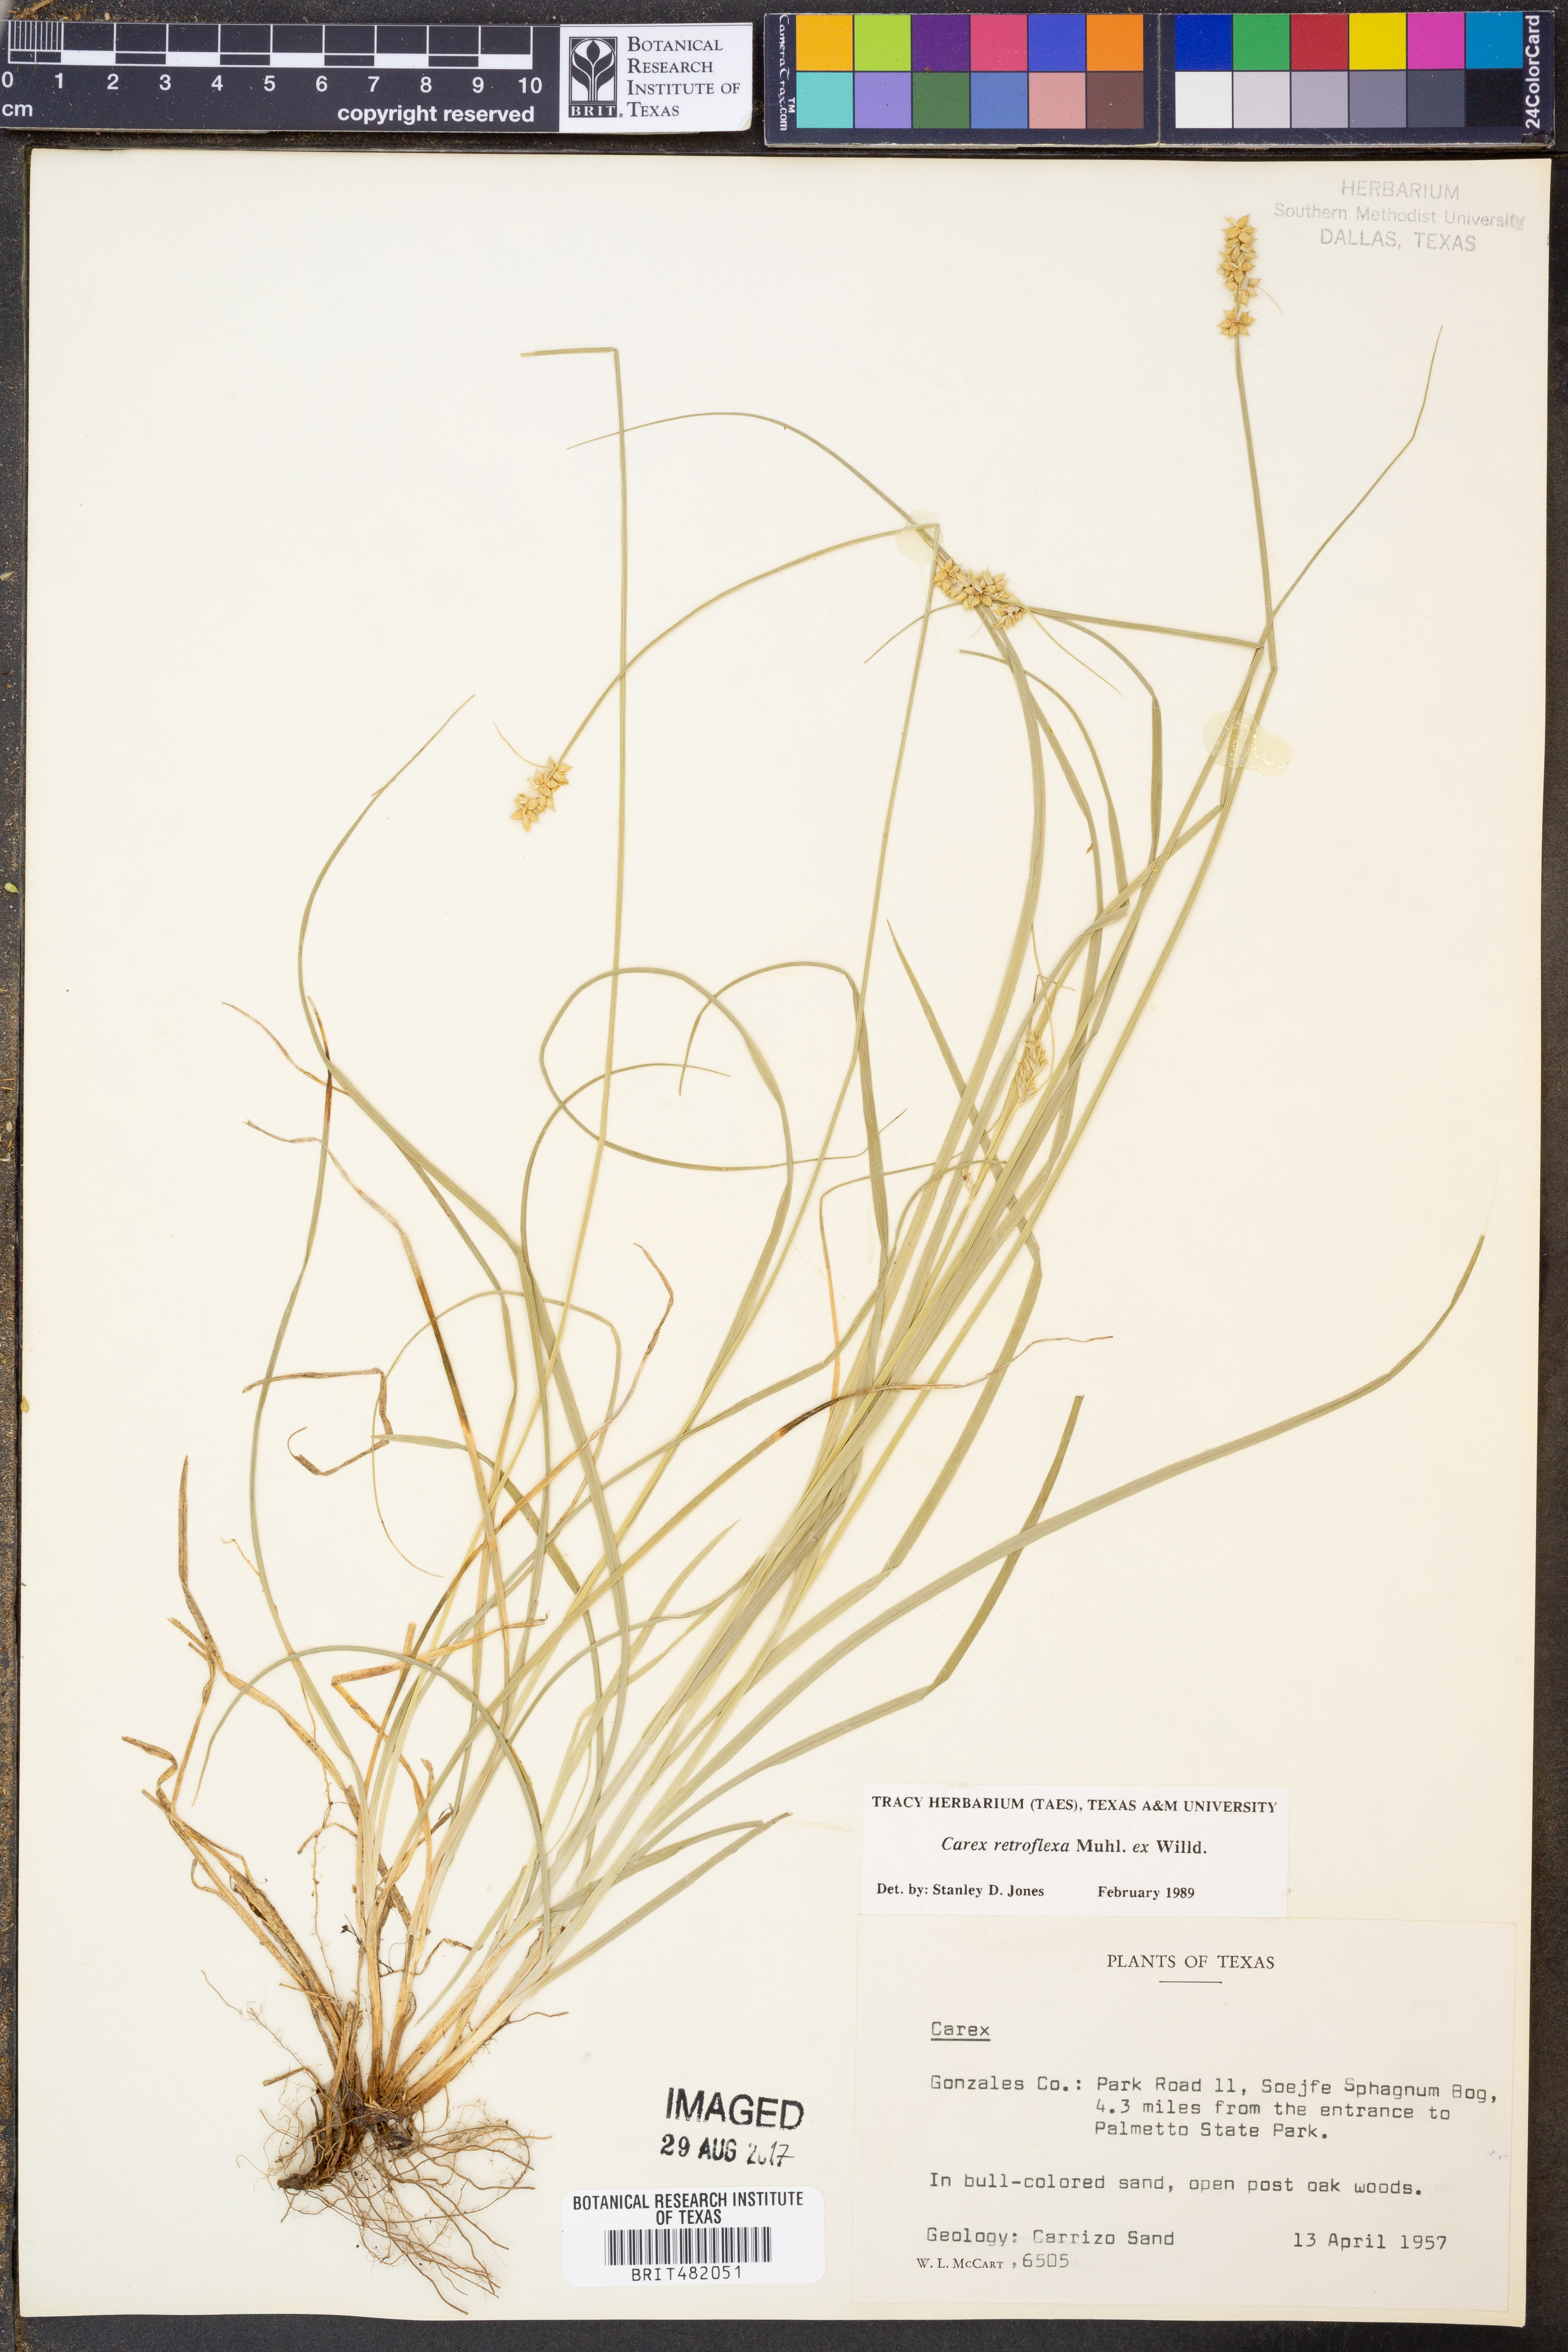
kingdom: Plantae
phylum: Tracheophyta
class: Liliopsida
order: Poales
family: Cyperaceae
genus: Carex
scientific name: Carex retroflexa
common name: Reflexed sedge
